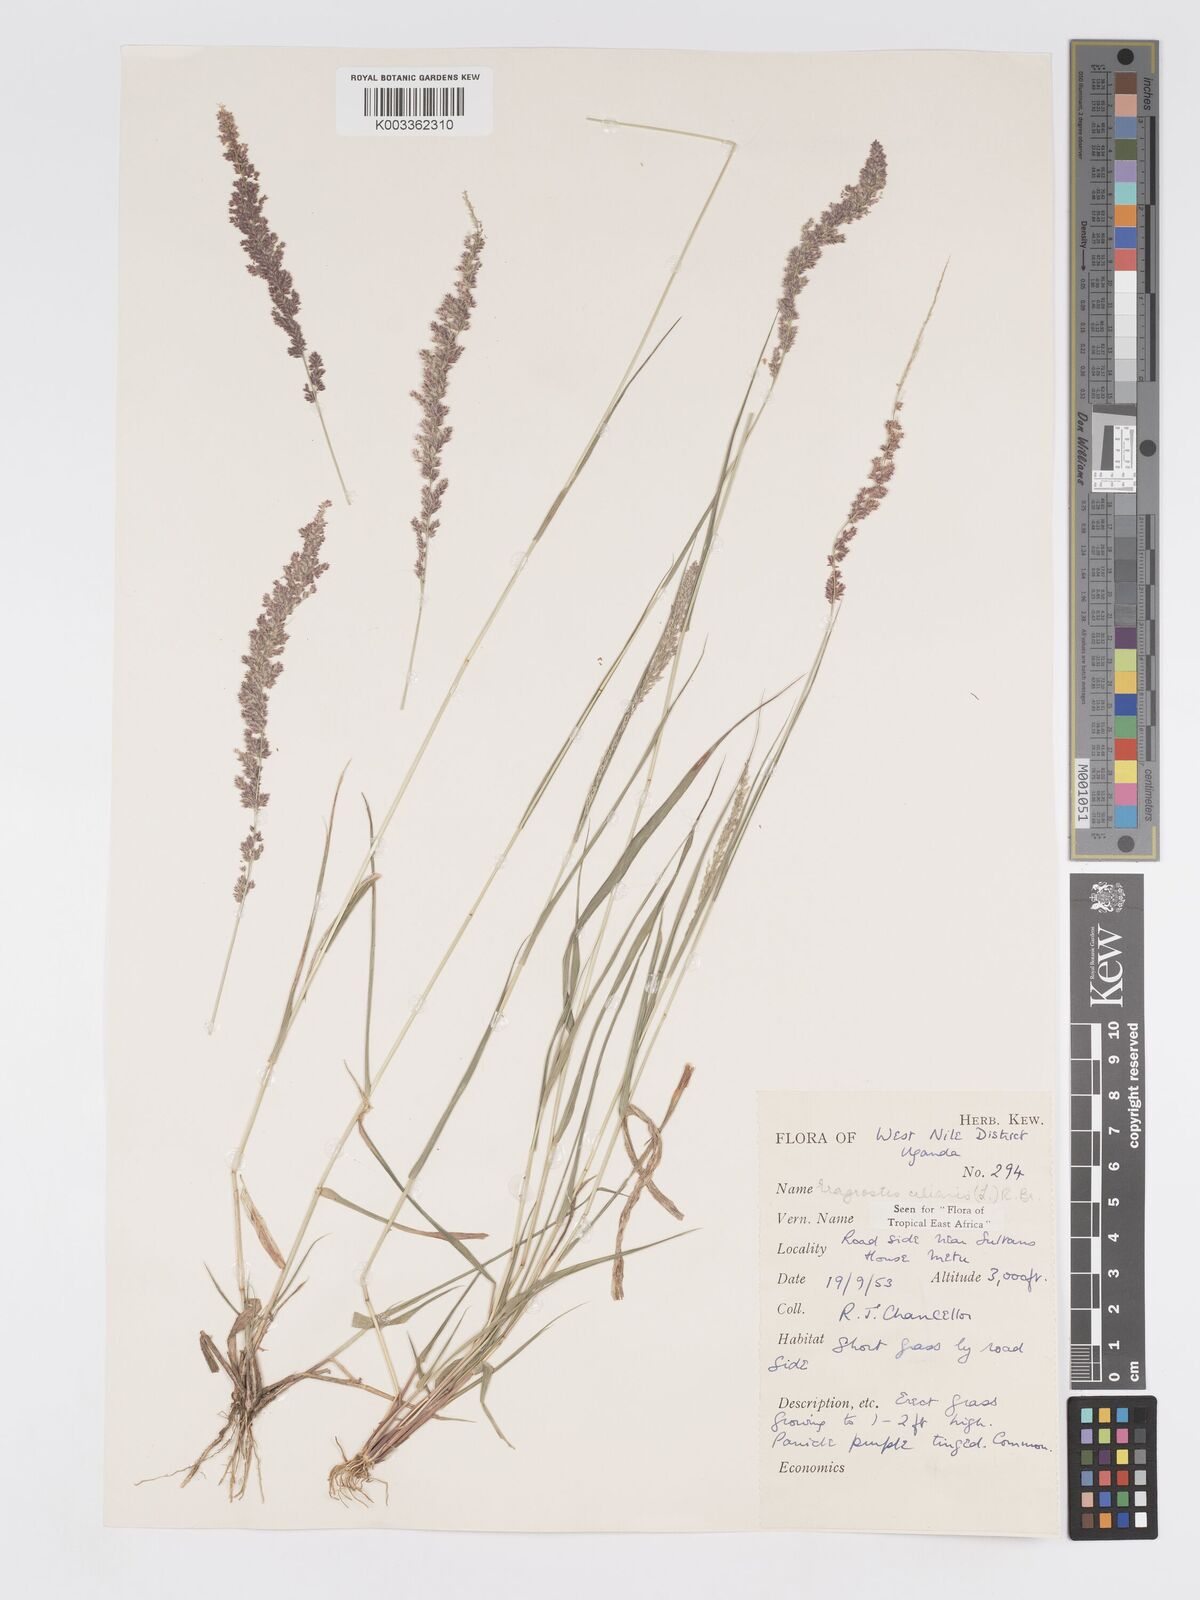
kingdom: Plantae
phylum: Tracheophyta
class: Liliopsida
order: Poales
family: Poaceae
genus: Eragrostis
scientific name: Eragrostis ciliaris
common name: Gophertail lovegrass
